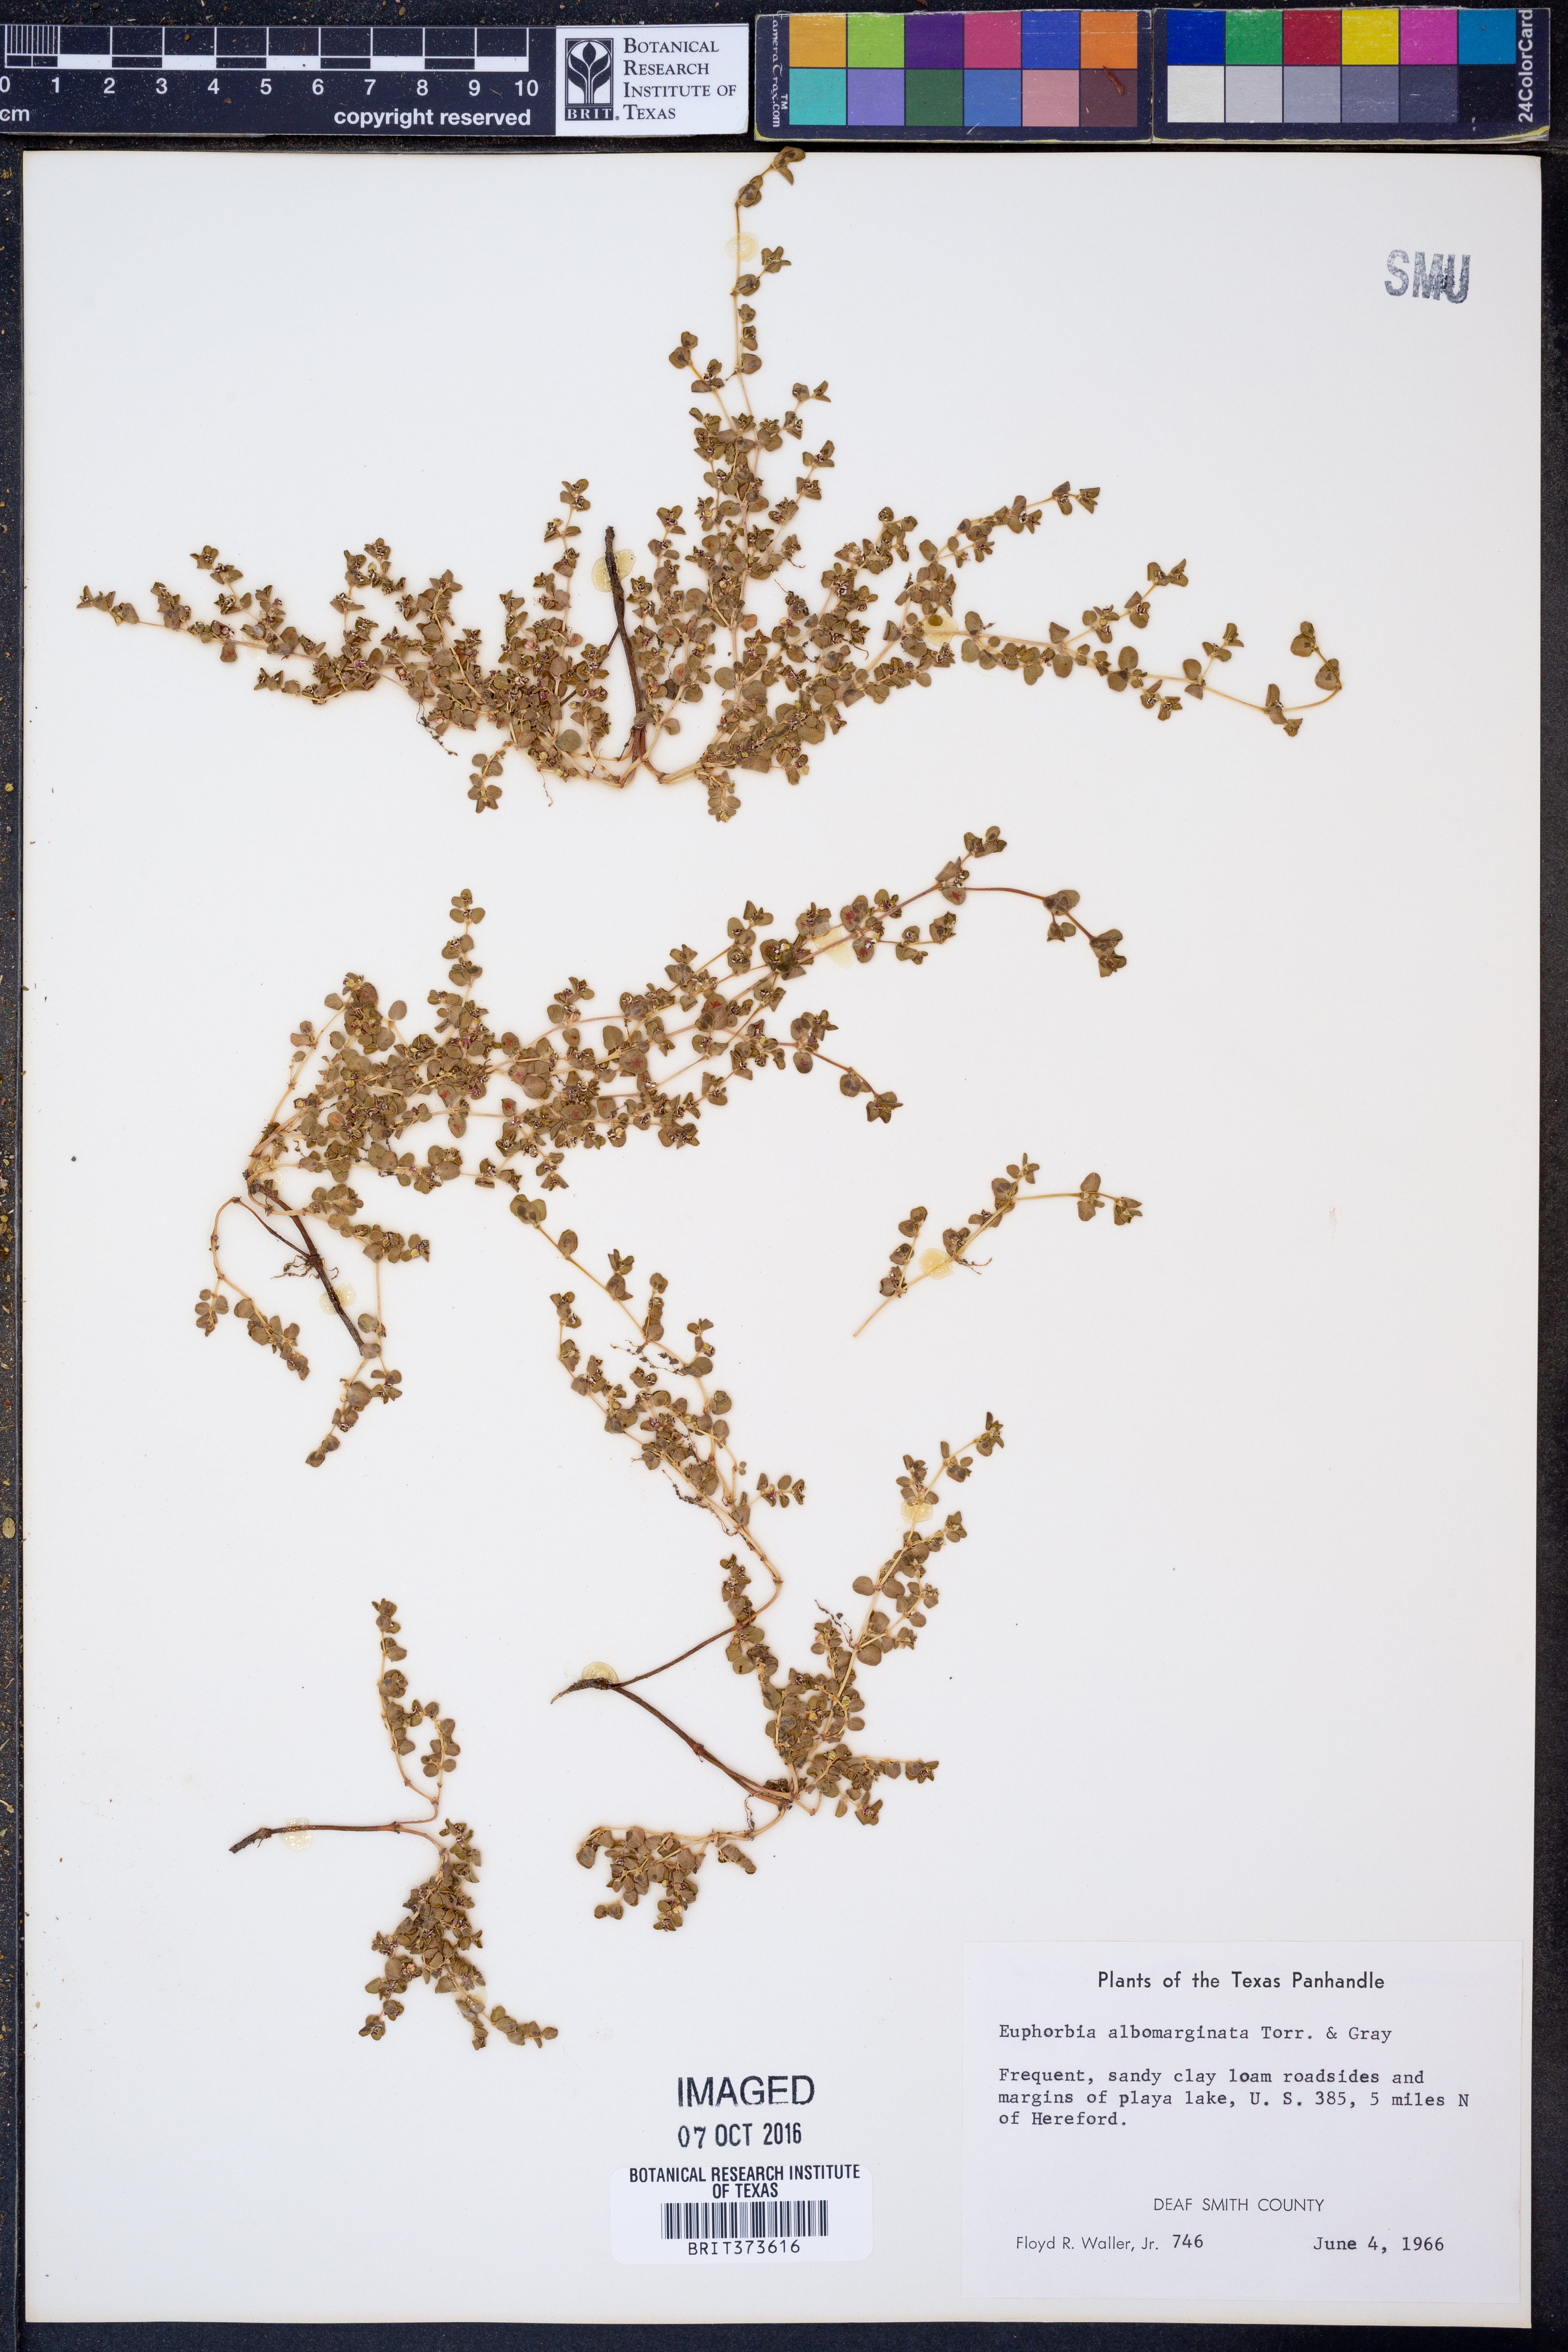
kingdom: Plantae
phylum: Tracheophyta
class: Magnoliopsida
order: Malpighiales
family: Euphorbiaceae
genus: Euphorbia
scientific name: Euphorbia albomarginata
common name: Whitemargin sandmat
